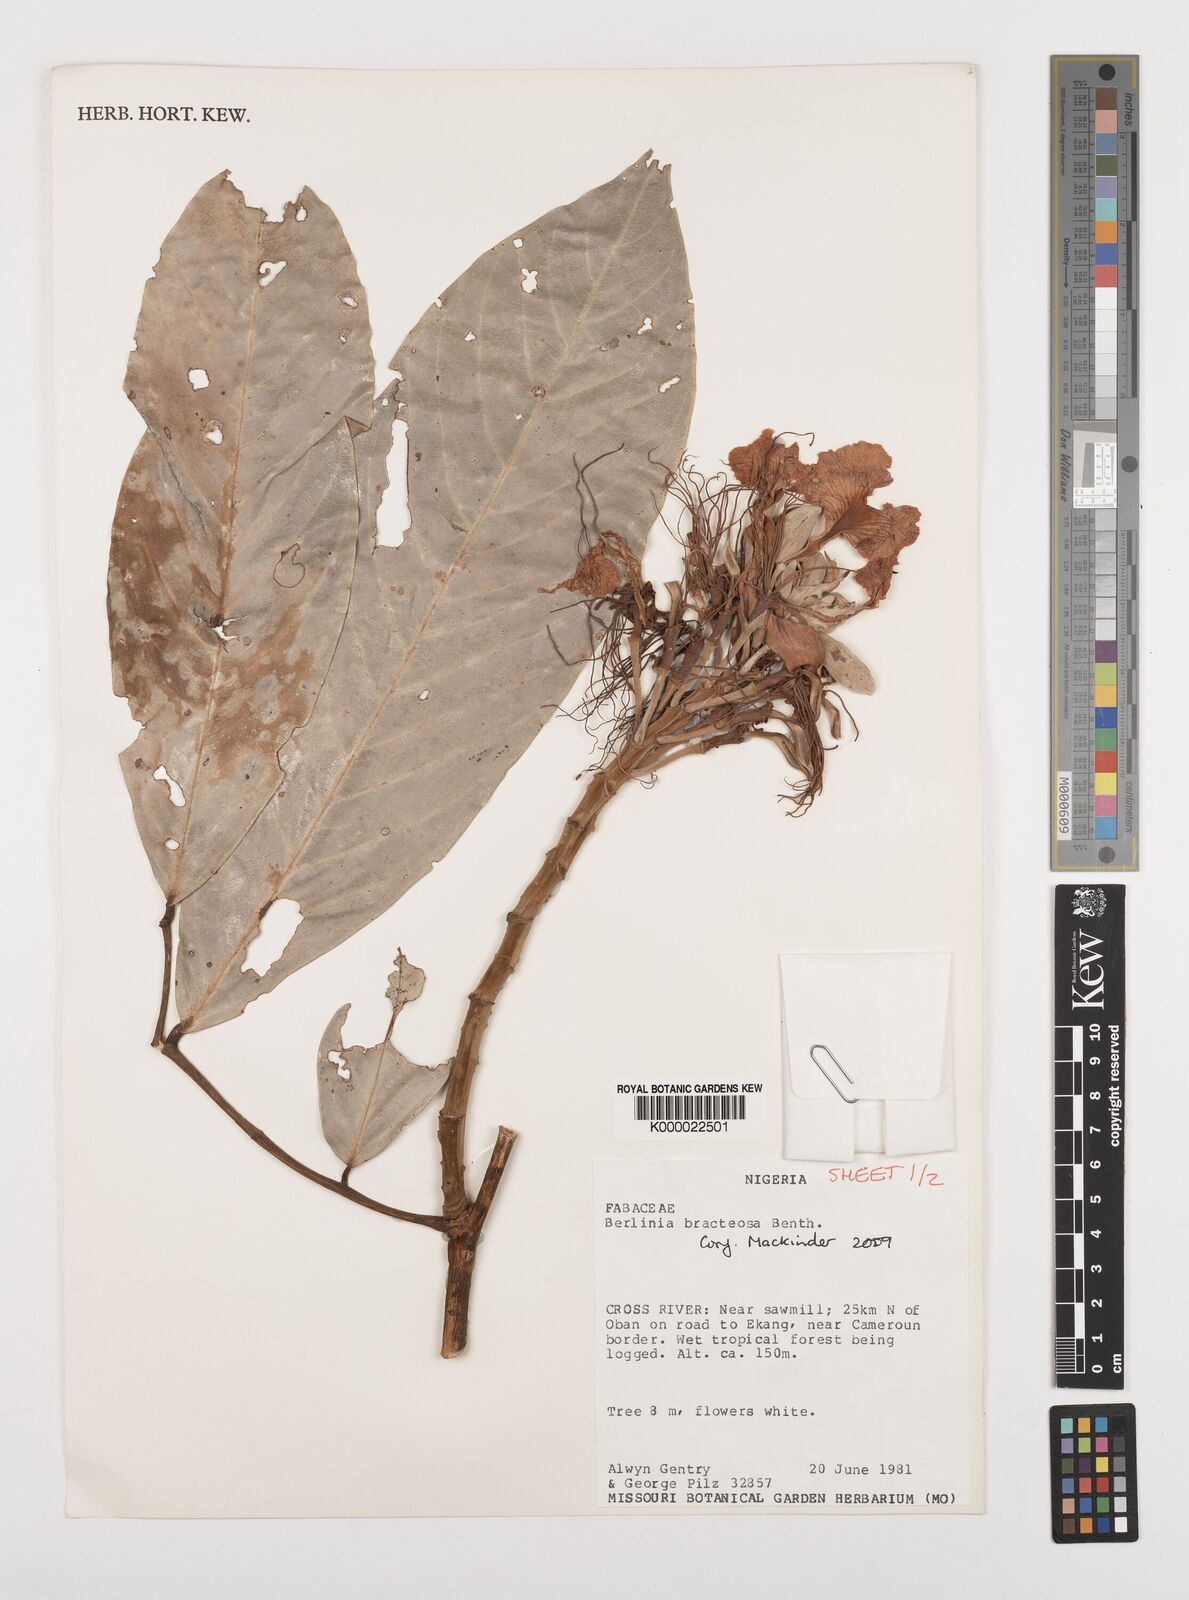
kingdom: Plantae
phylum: Tracheophyta
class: Magnoliopsida
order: Fabales
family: Fabaceae
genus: Berlinia
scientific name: Berlinia bracteosa
